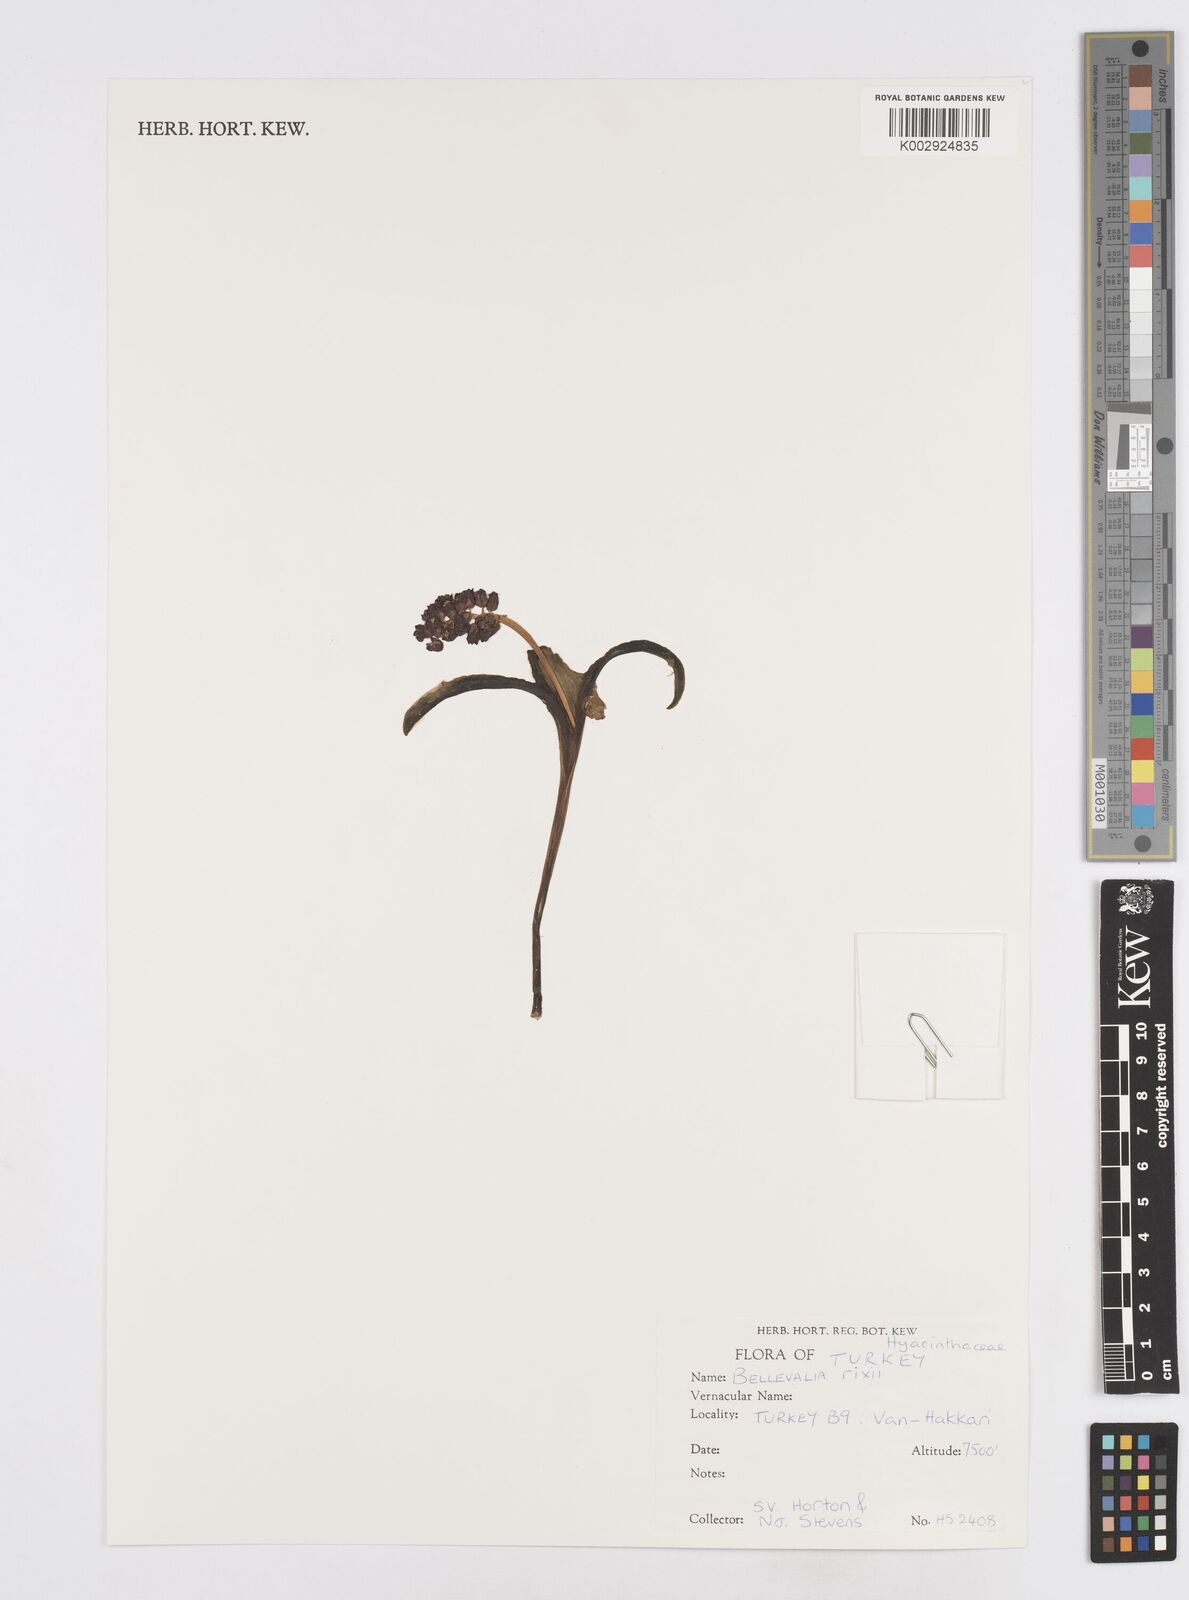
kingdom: Plantae
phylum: Tracheophyta
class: Liliopsida
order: Asparagales
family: Asparagaceae
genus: Bellevalia
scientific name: Bellevalia
